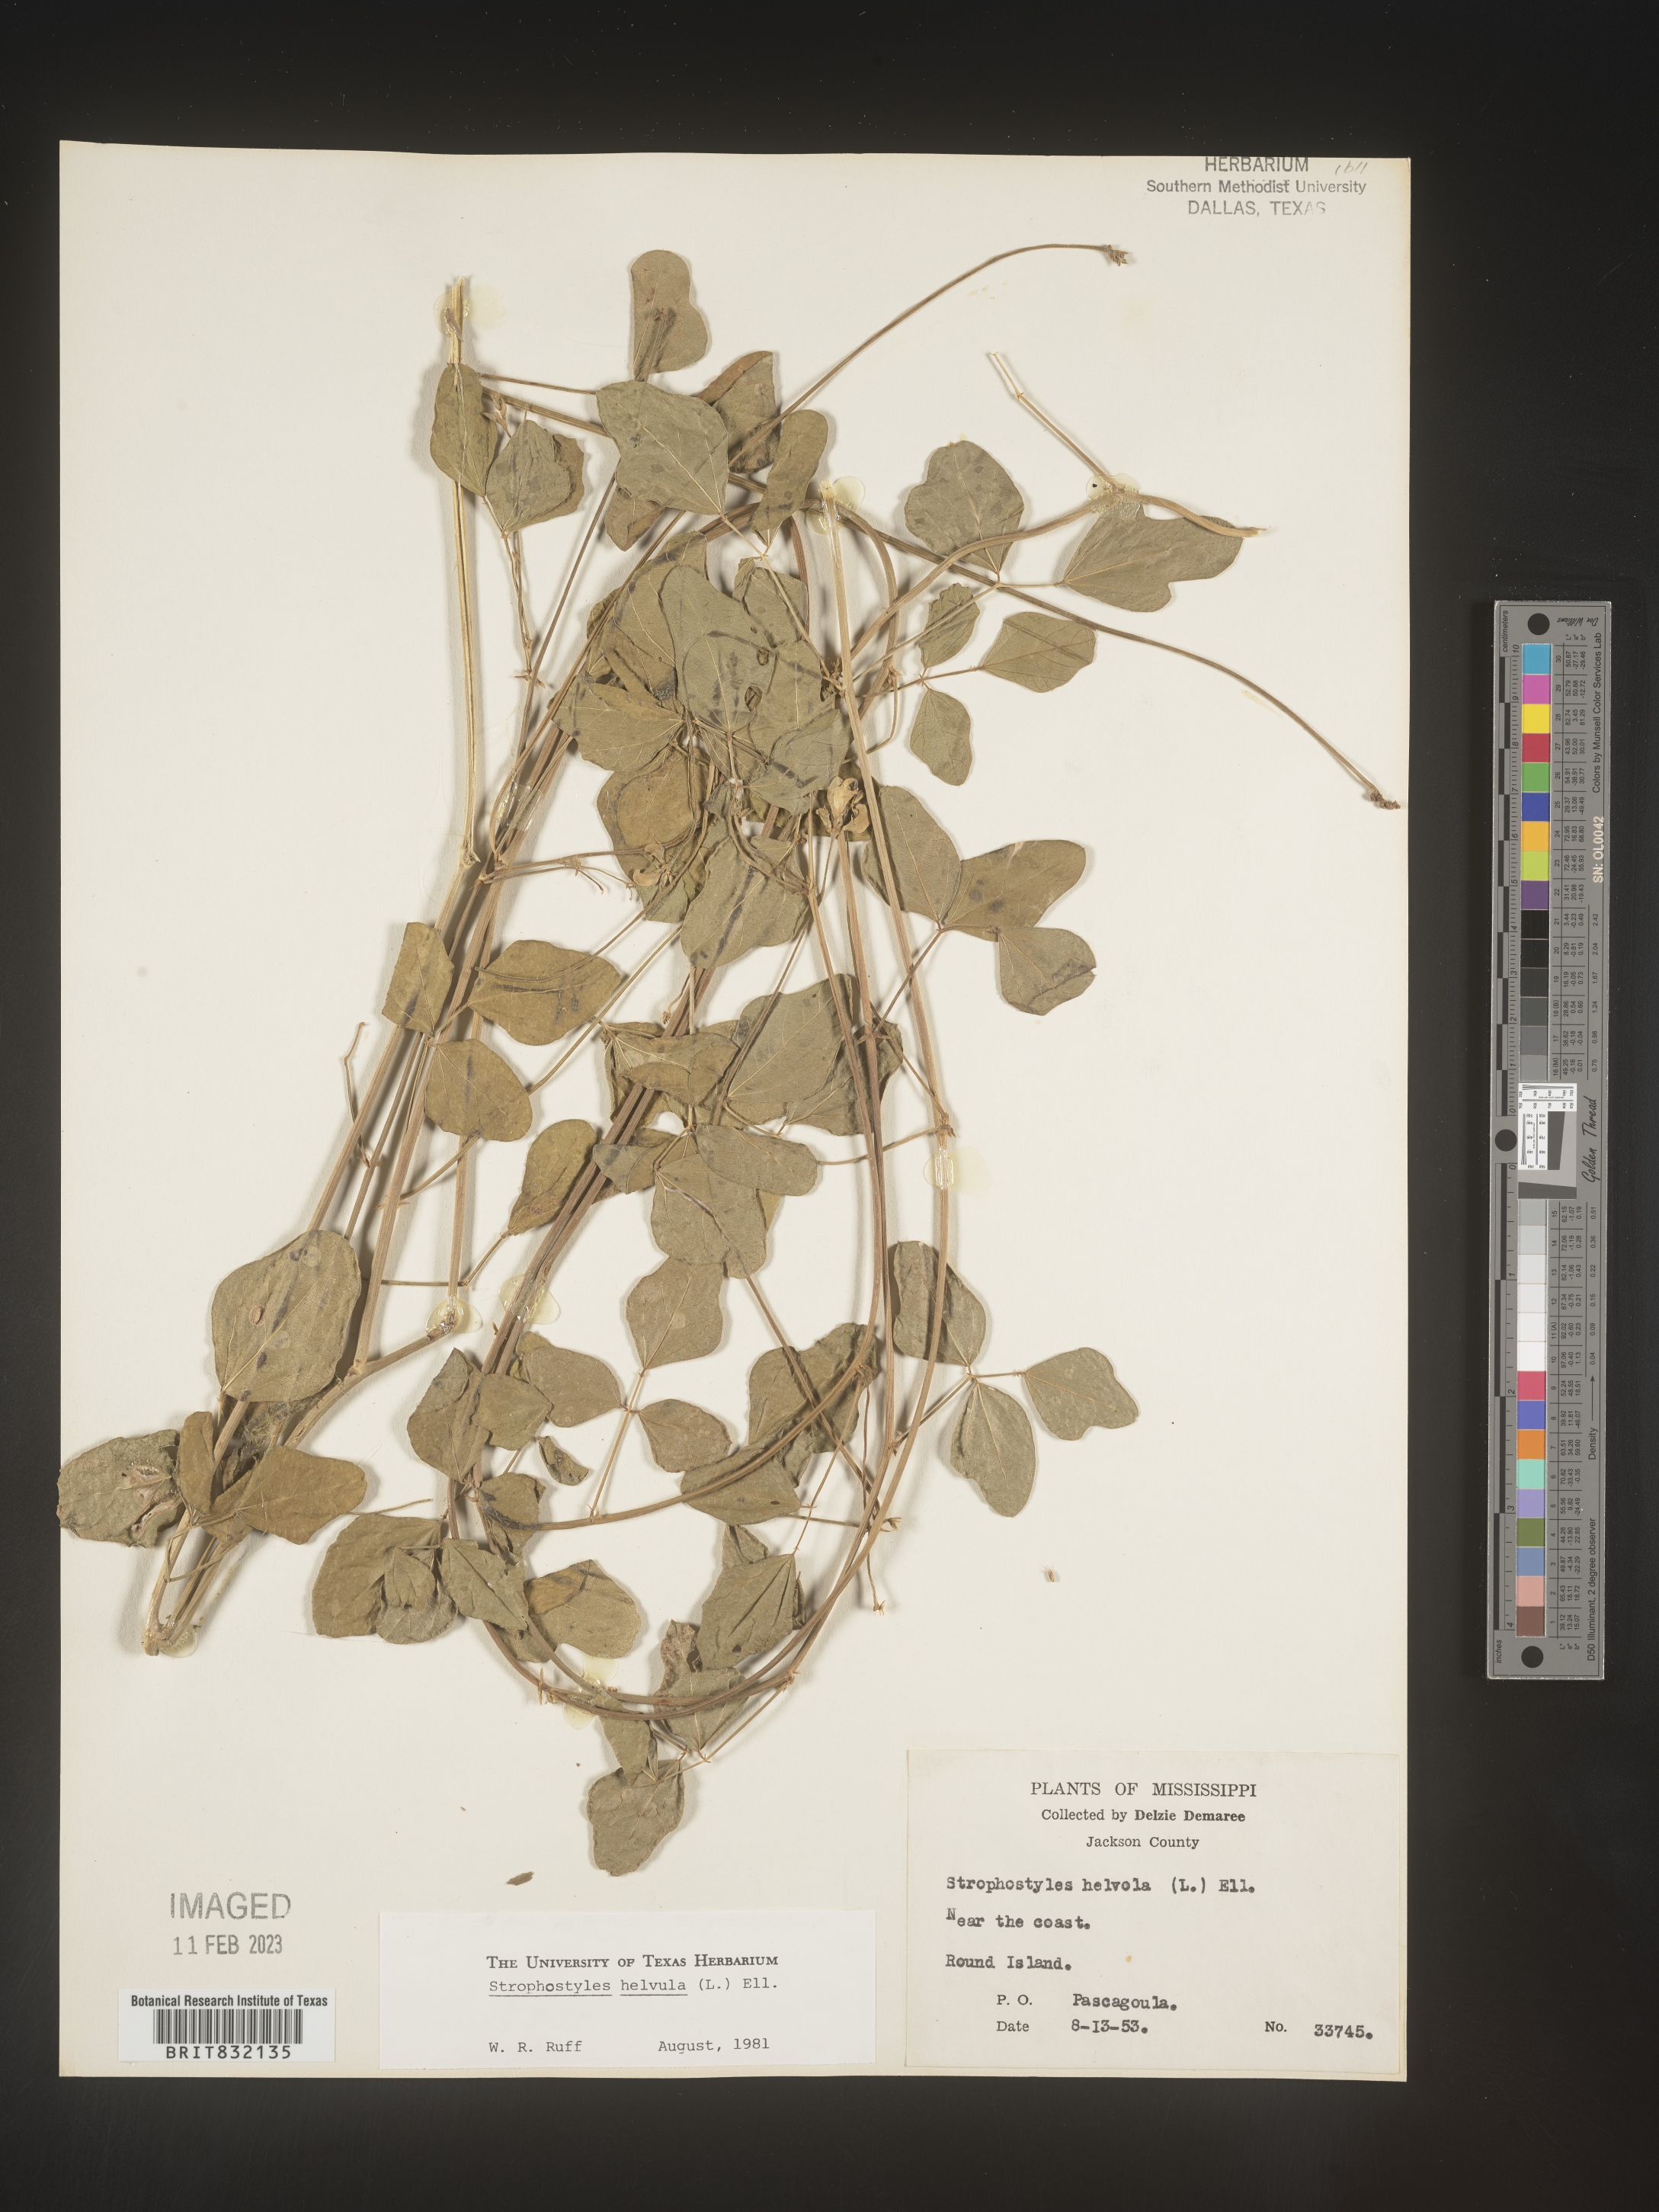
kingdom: Plantae
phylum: Tracheophyta
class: Magnoliopsida
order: Fabales
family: Fabaceae
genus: Strophostyles
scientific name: Strophostyles helvola
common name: Trailing wild bean
